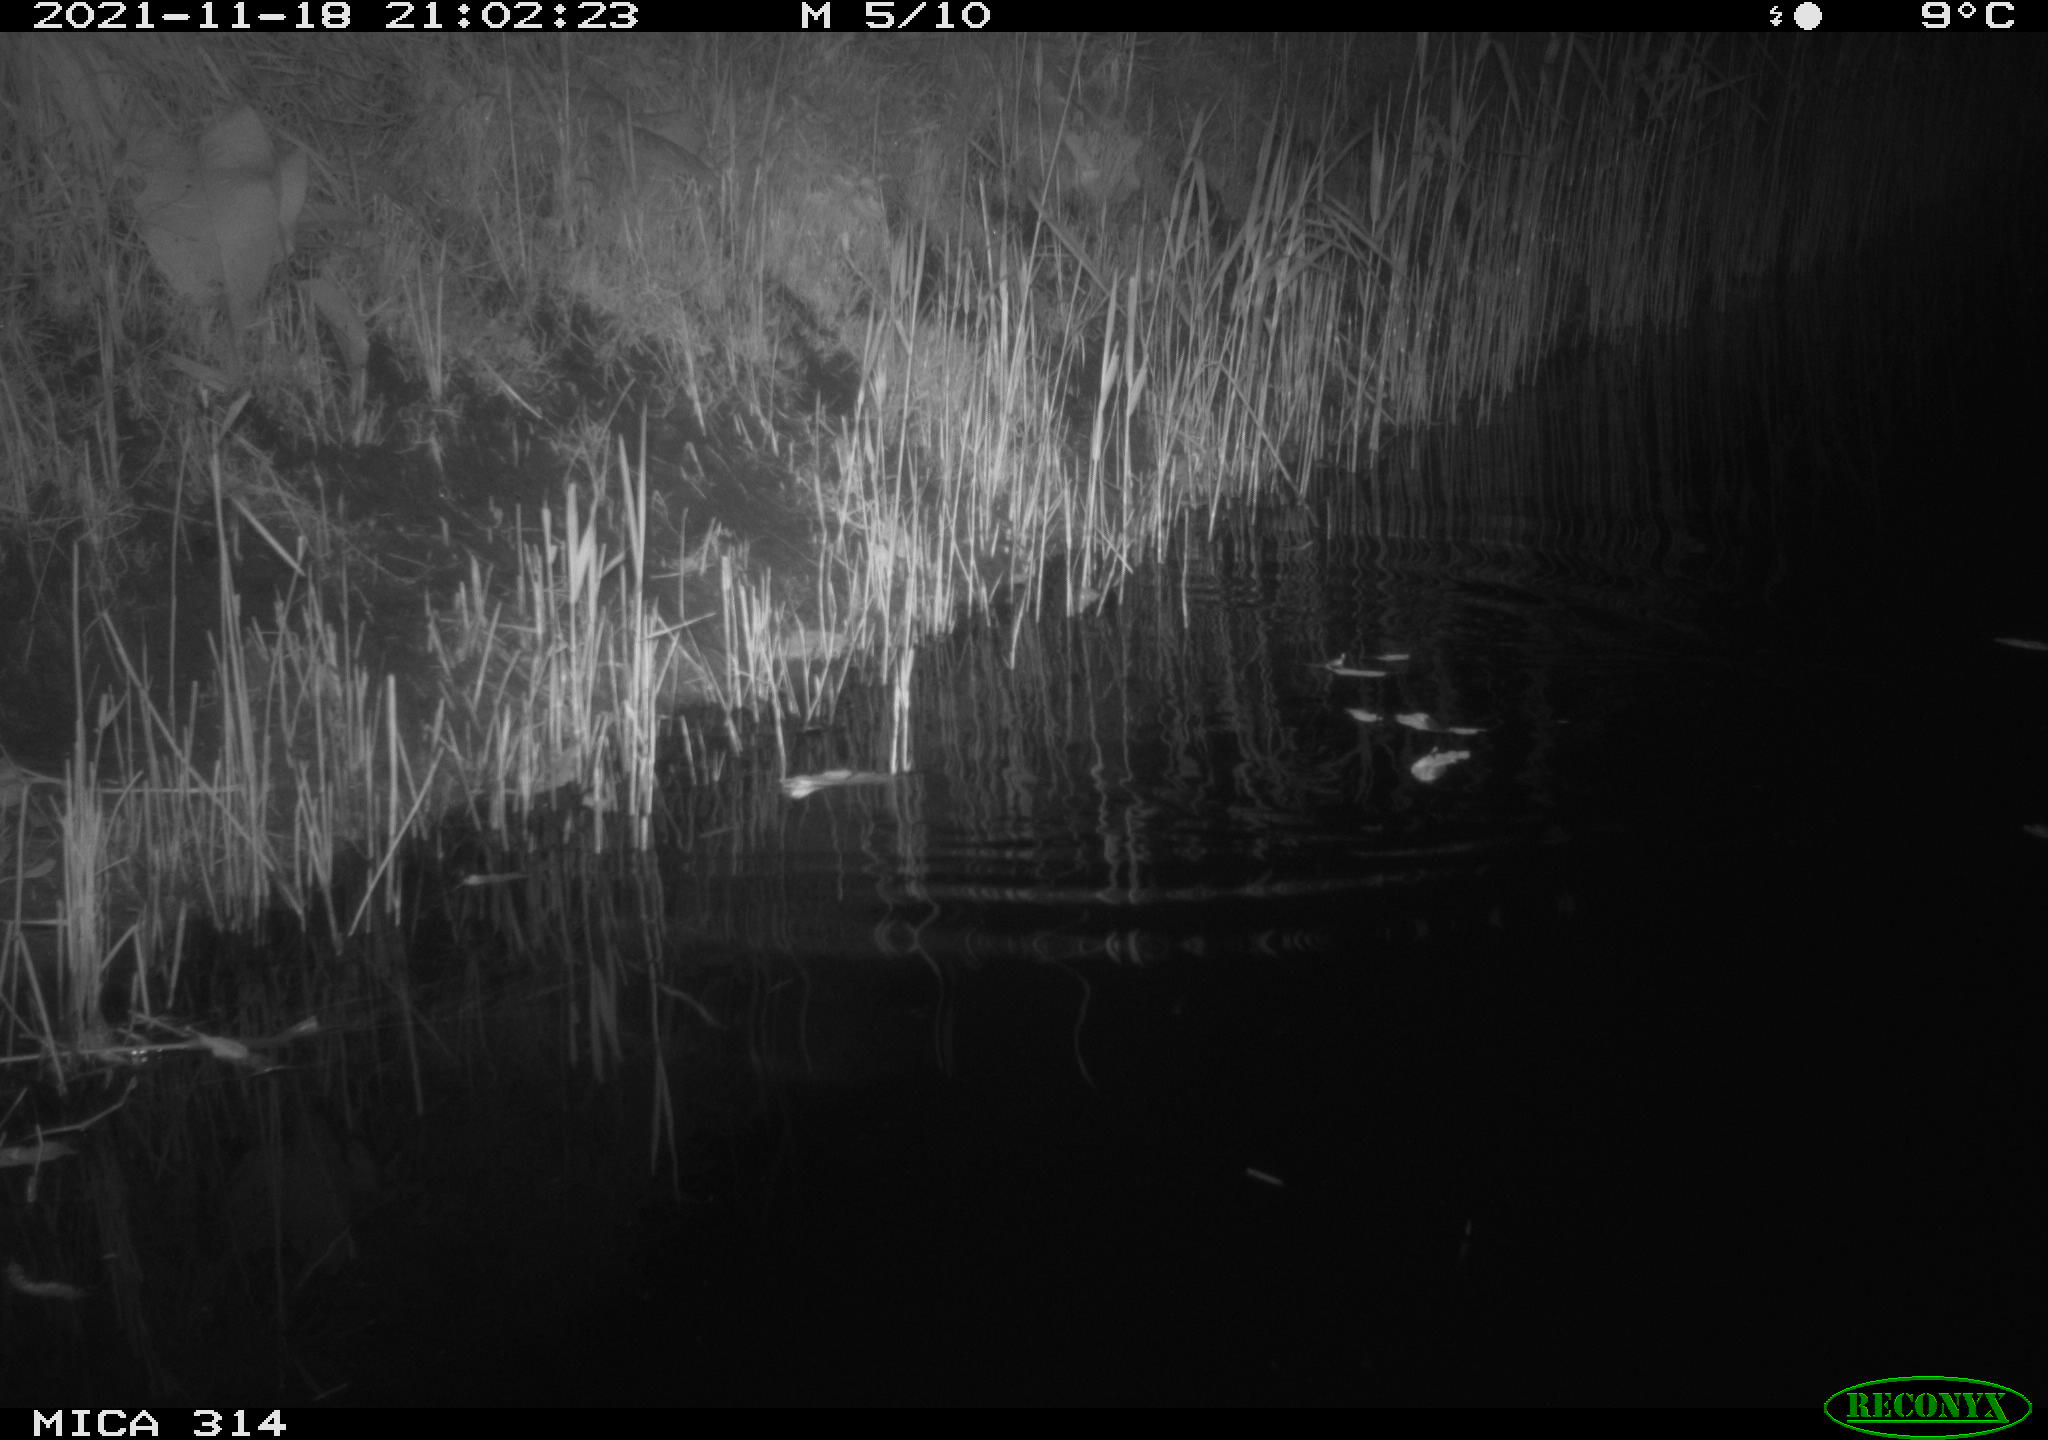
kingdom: Animalia
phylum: Chordata
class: Mammalia
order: Rodentia
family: Muridae
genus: Rattus
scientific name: Rattus norvegicus
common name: Brown rat
